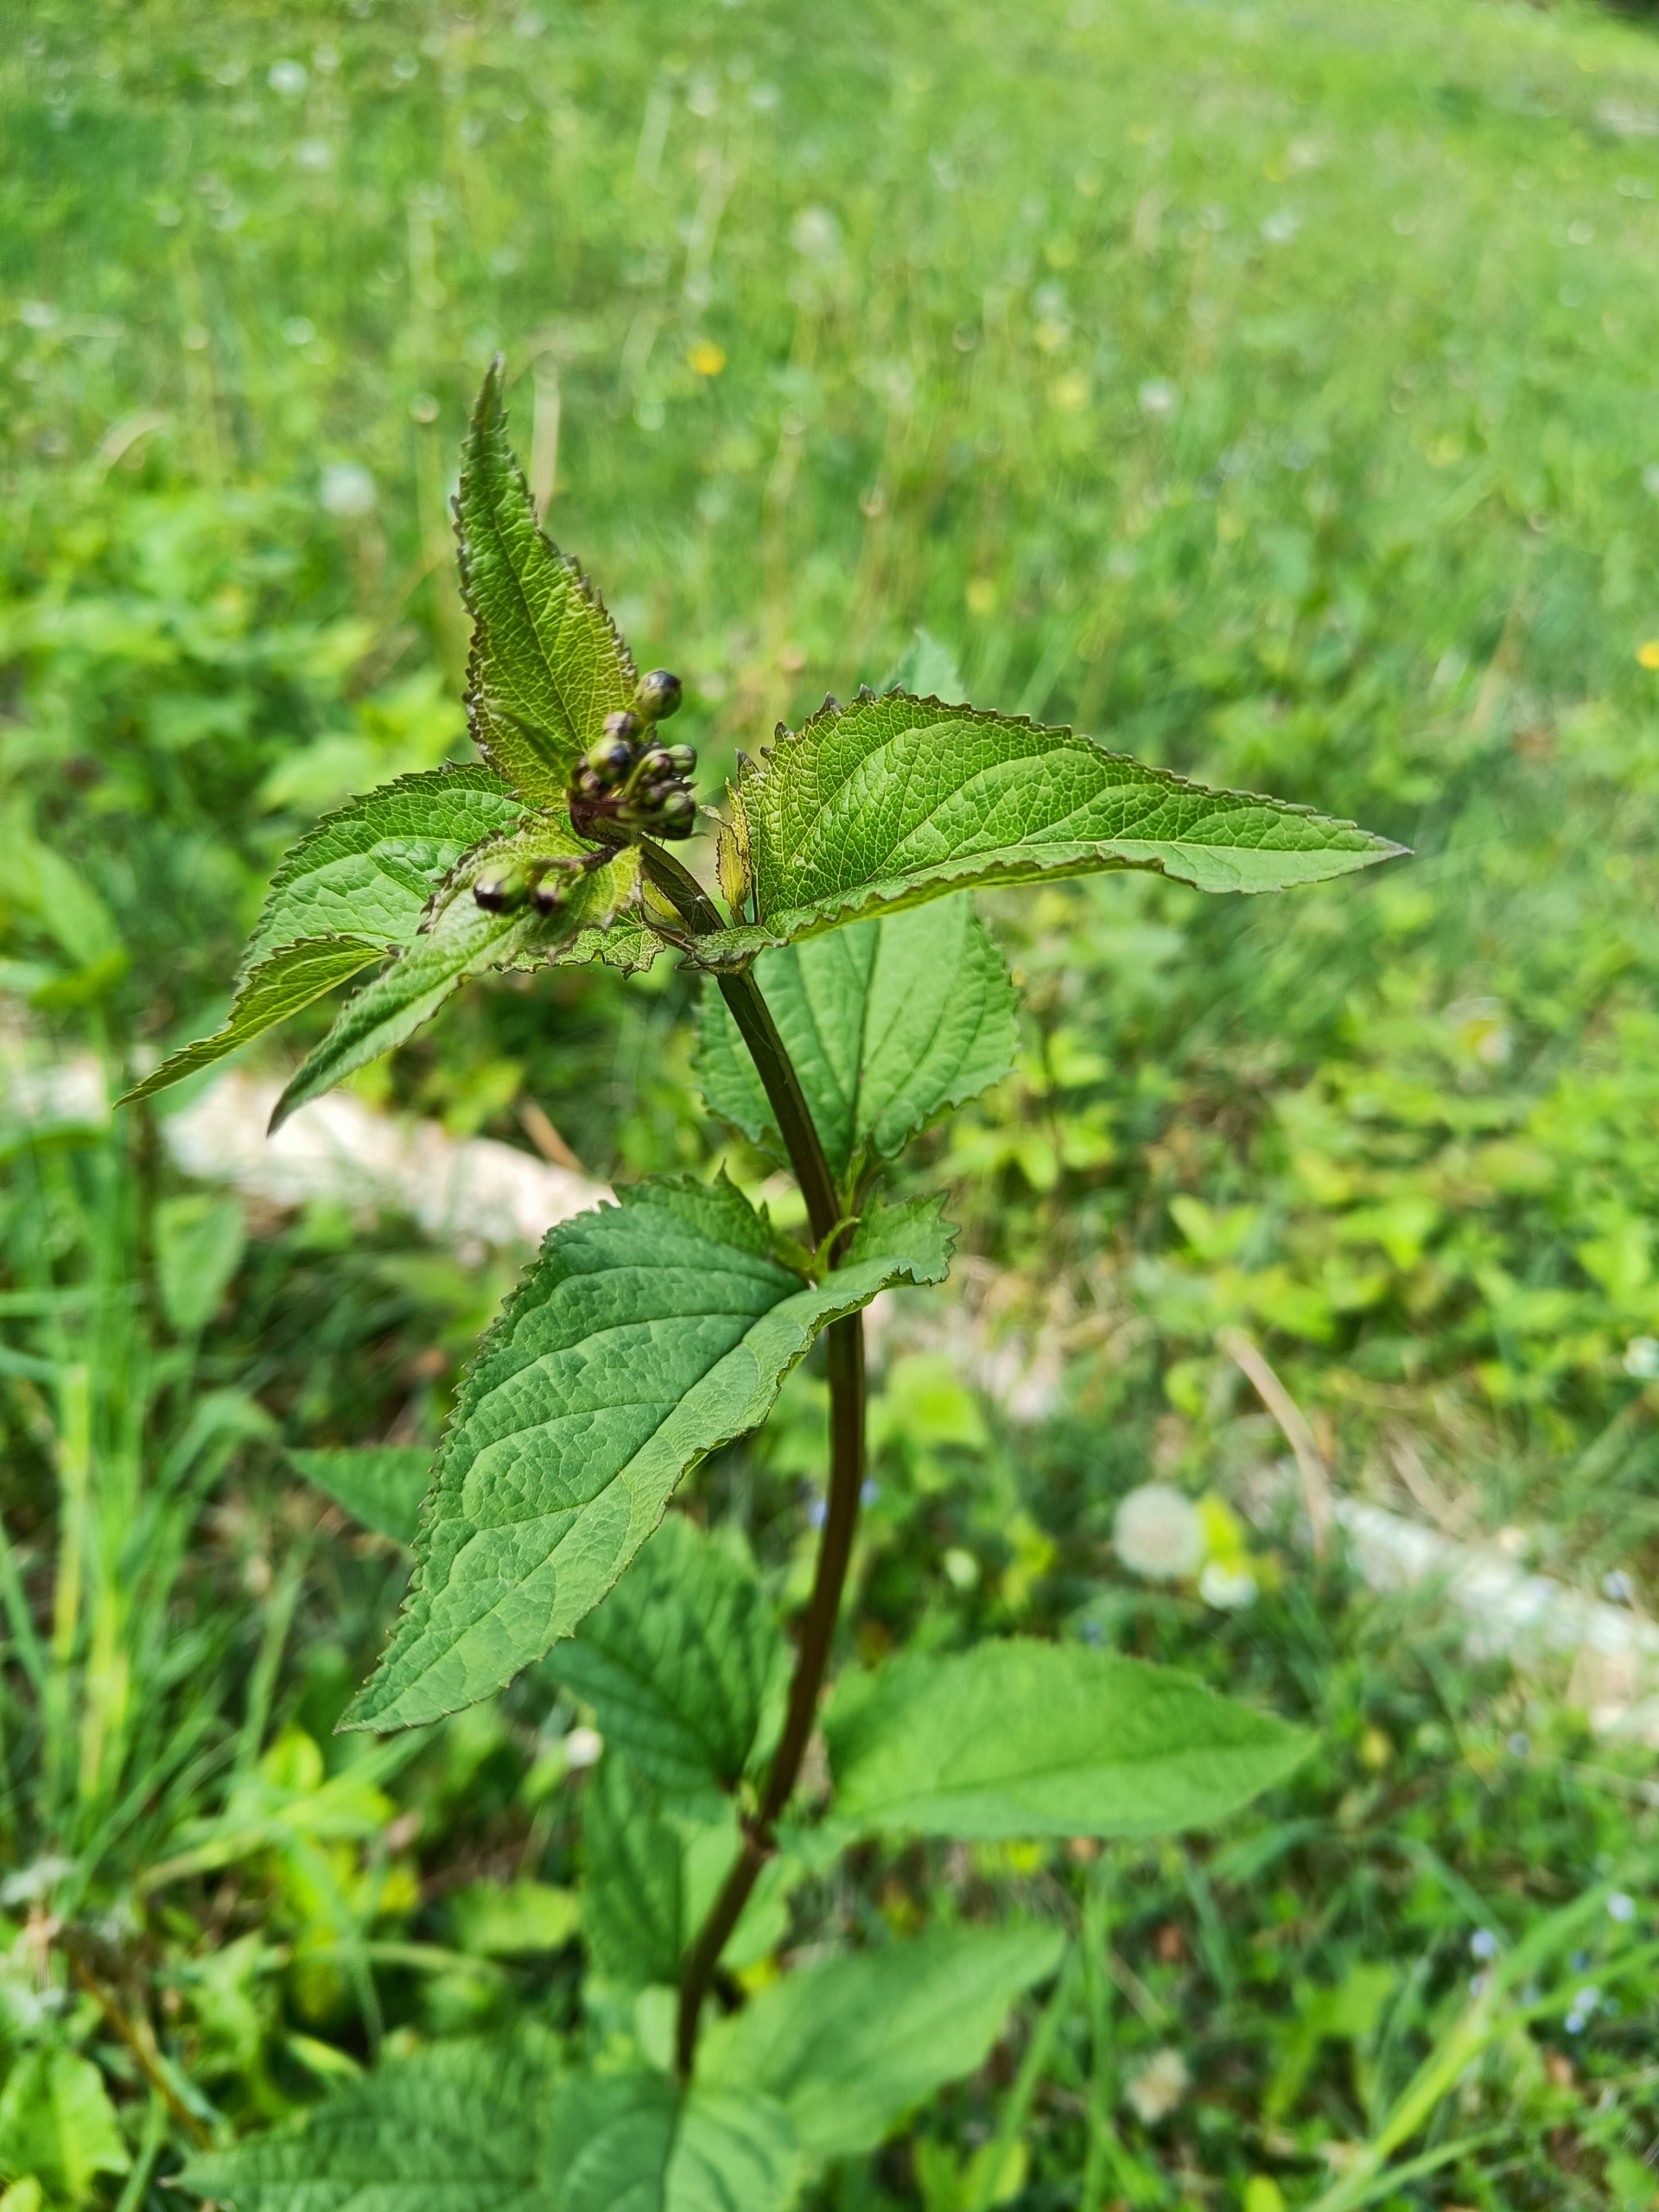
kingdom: Plantae
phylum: Tracheophyta
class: Magnoliopsida
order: Lamiales
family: Scrophulariaceae
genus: Scrophularia
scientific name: Scrophularia nodosa
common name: Knoldet brunrod
